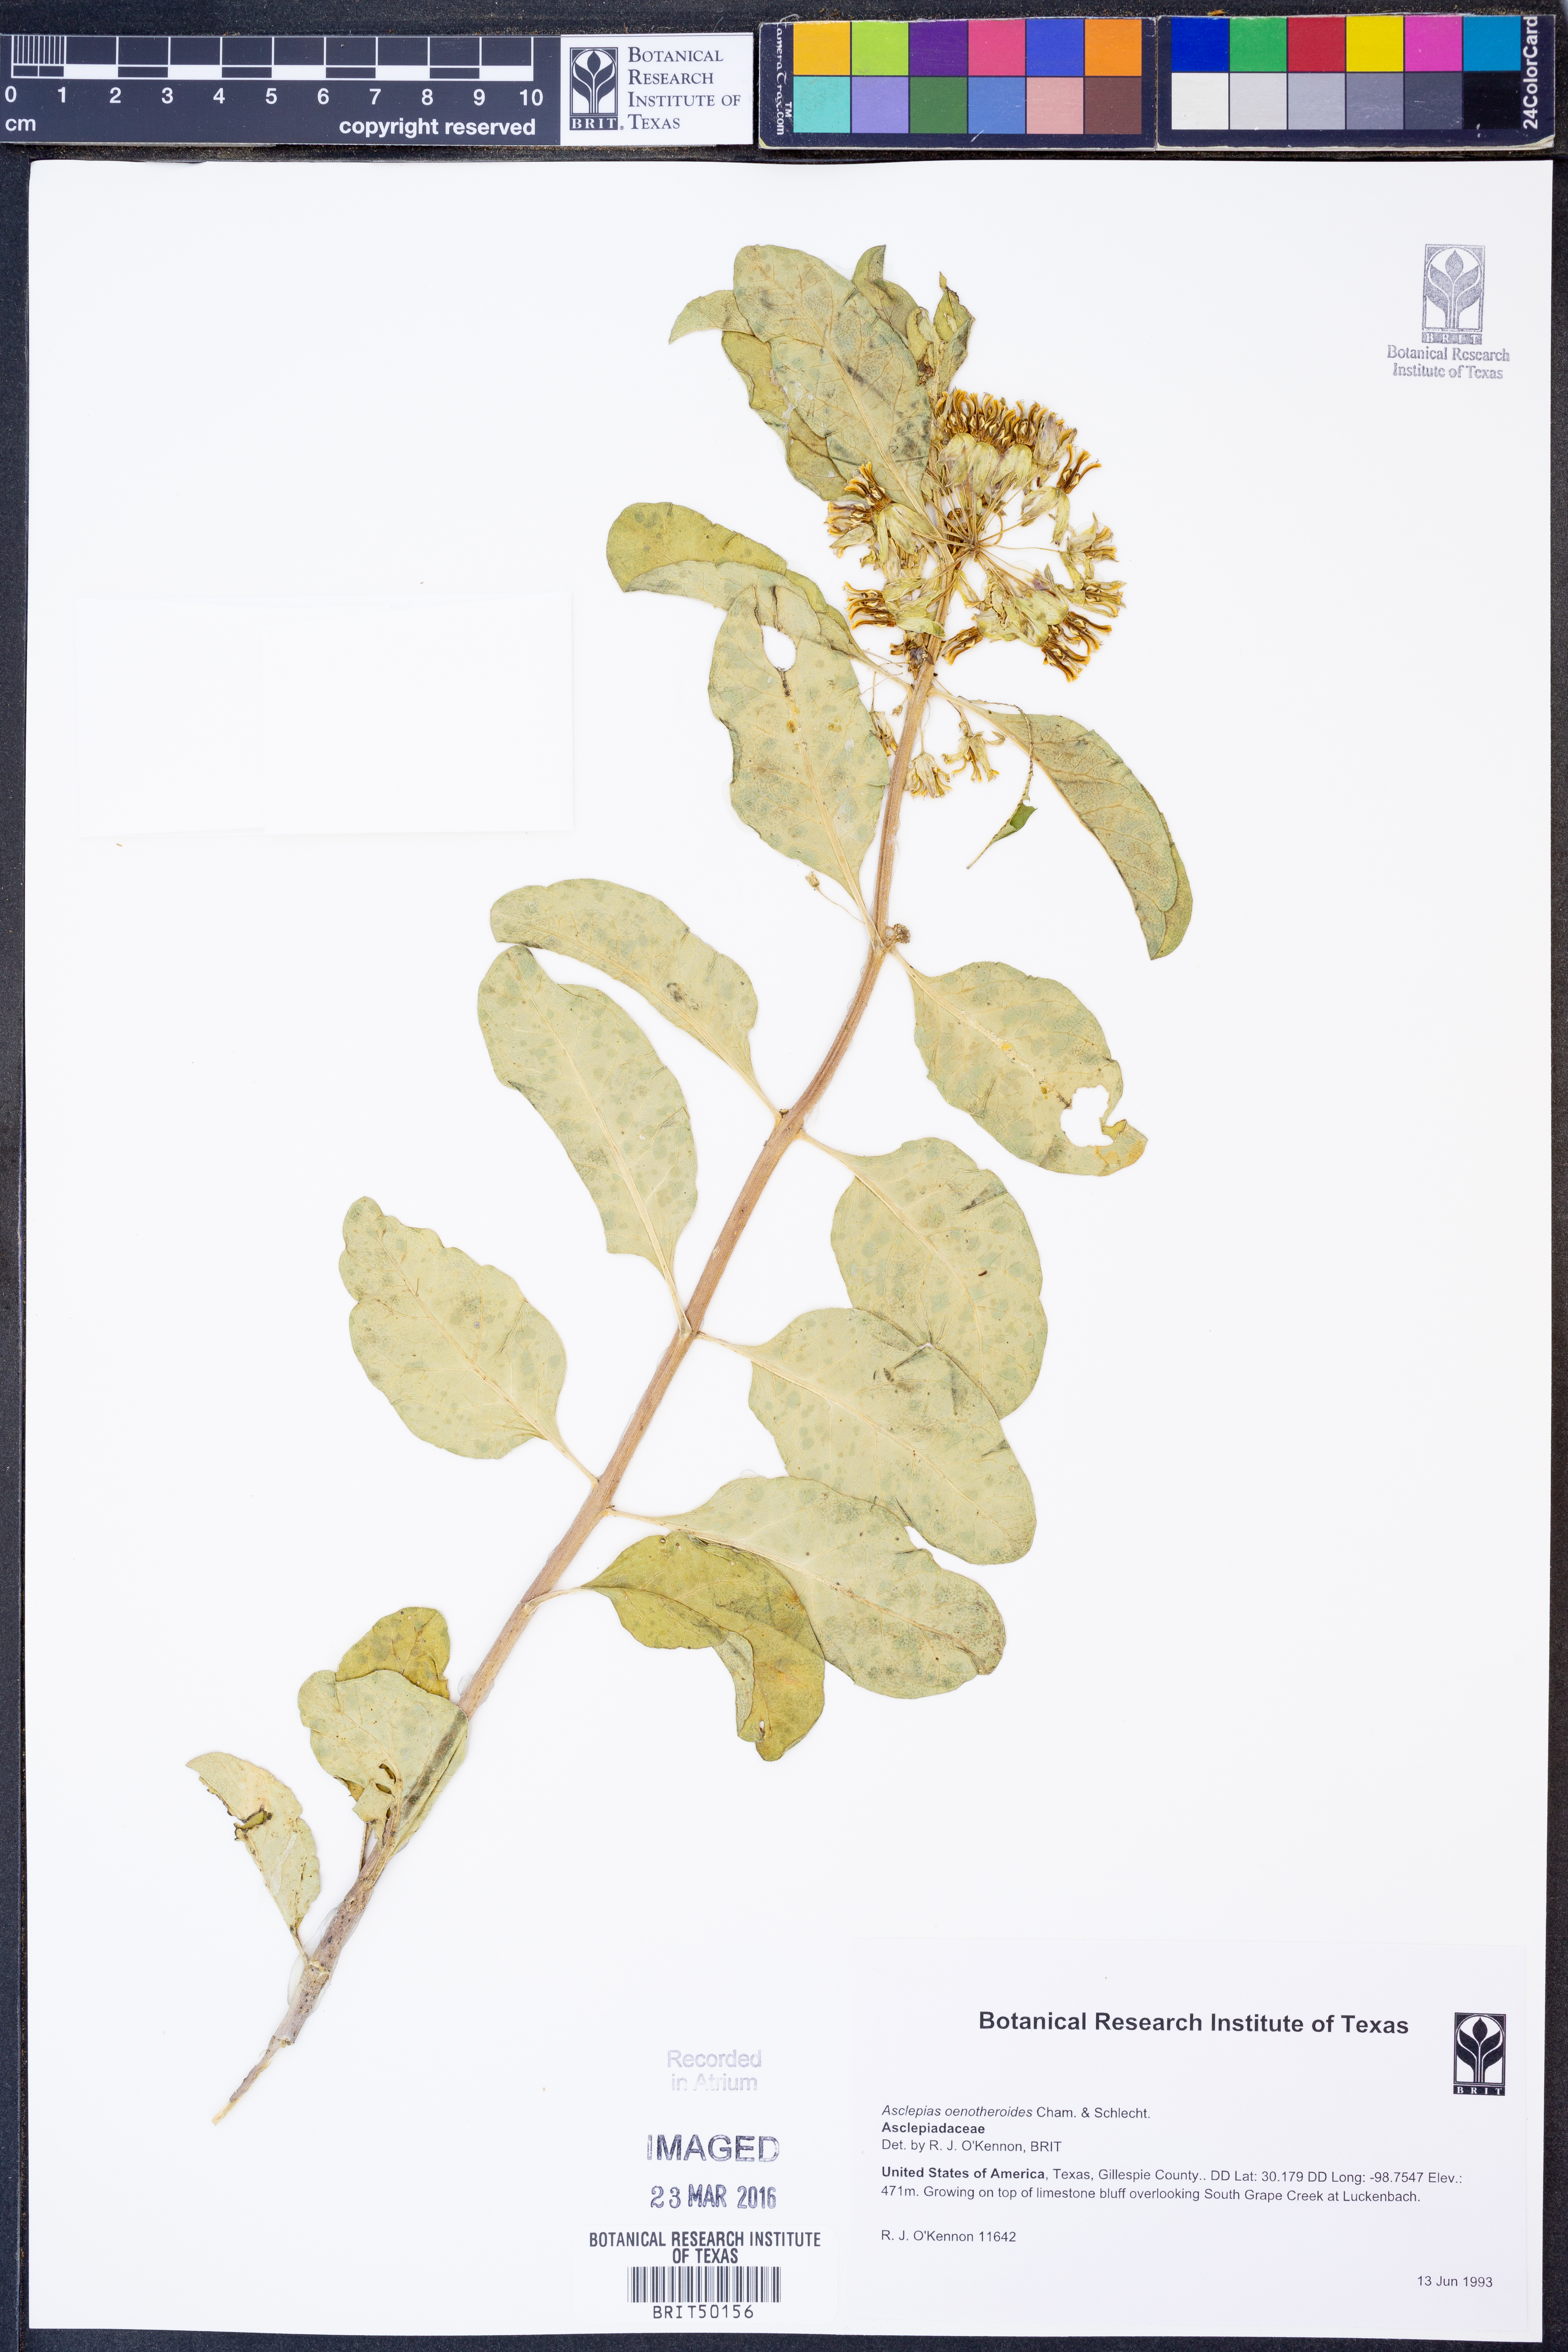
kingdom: Plantae
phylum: Tracheophyta
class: Magnoliopsida
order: Gentianales
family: Apocynaceae
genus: Asclepias
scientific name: Asclepias oenotheroides
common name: Zizotes milkweed
